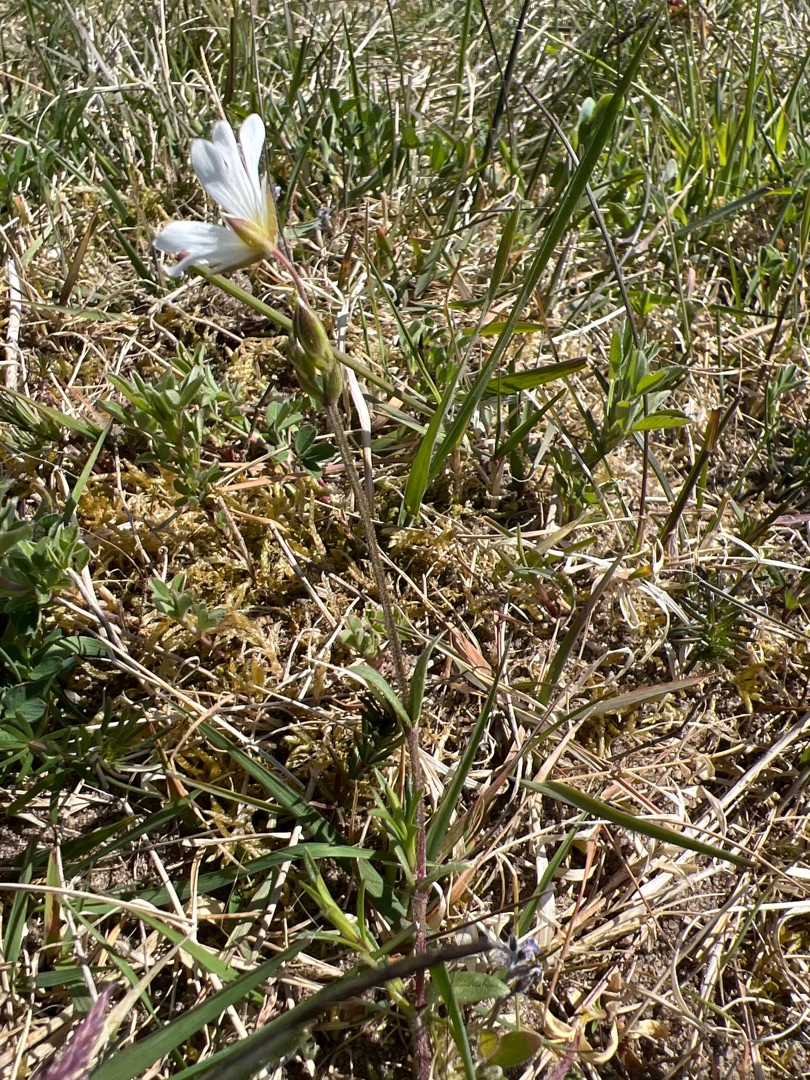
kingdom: Plantae
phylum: Tracheophyta
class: Magnoliopsida
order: Caryophyllales
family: Caryophyllaceae
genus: Cerastium
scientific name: Cerastium arvense
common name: Storblomstret hønsetarm
